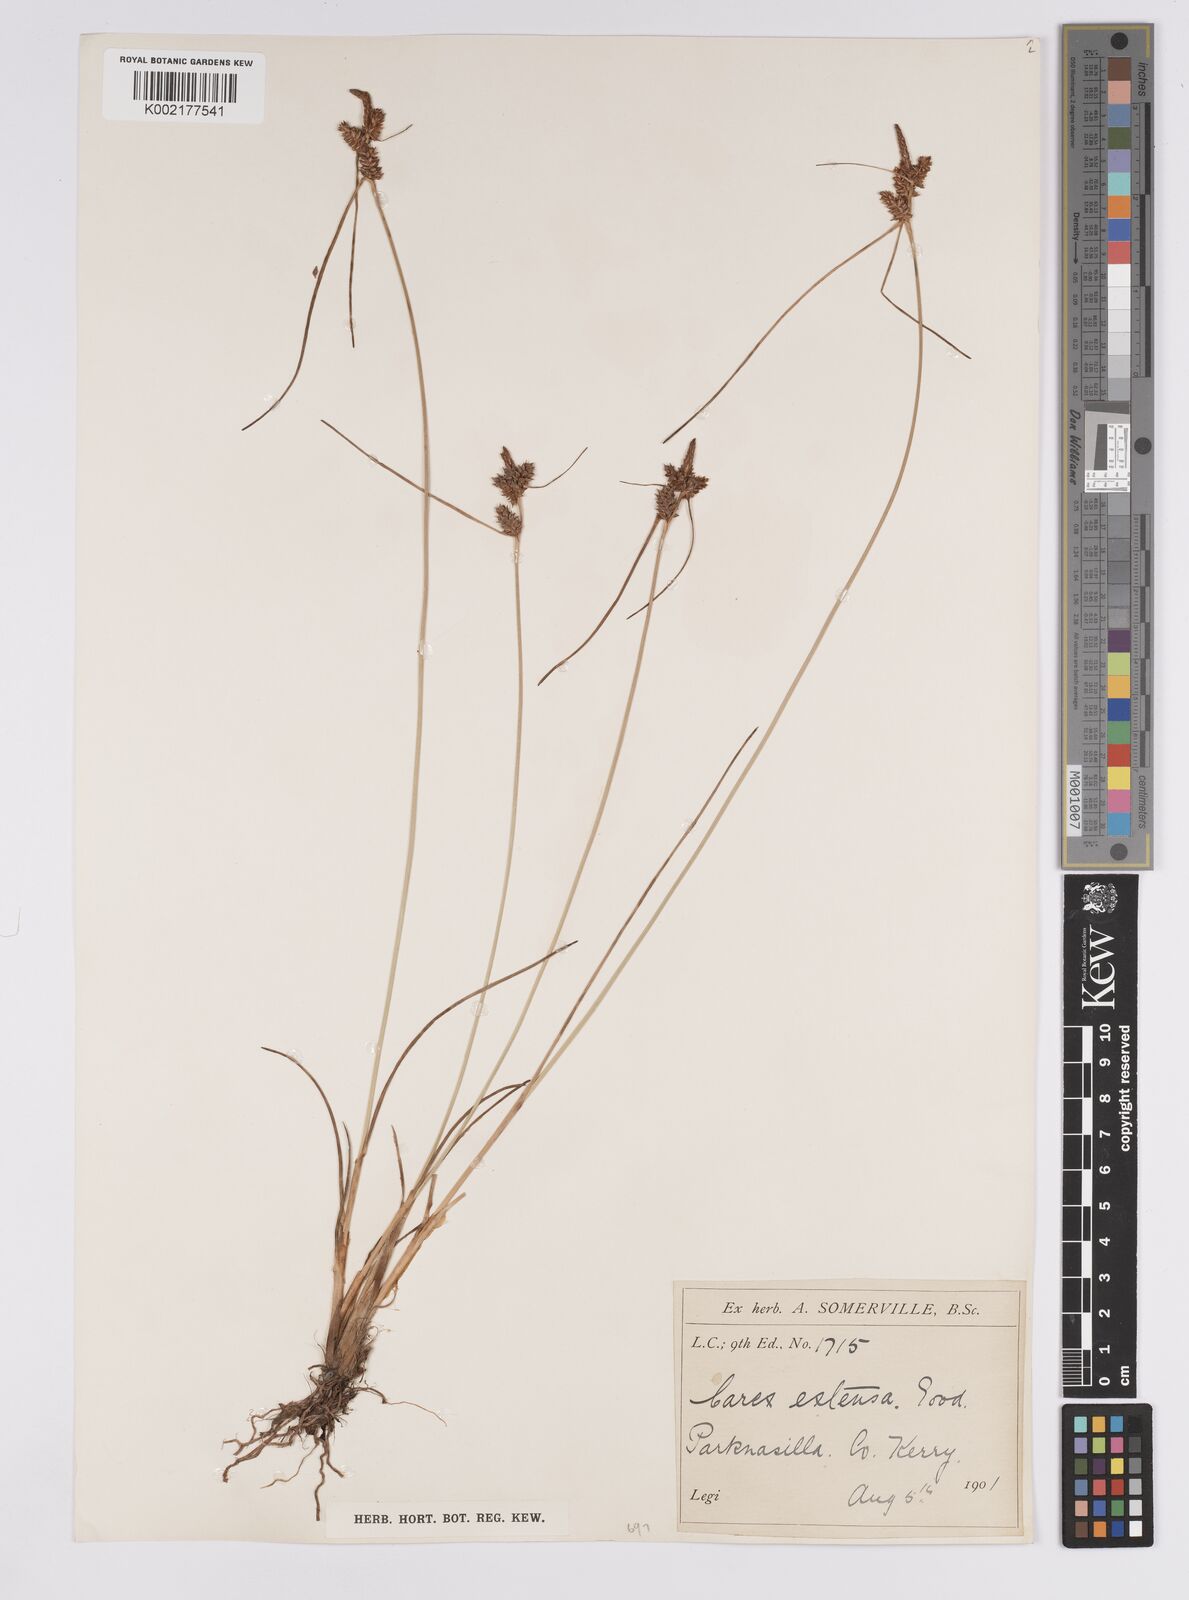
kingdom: Plantae
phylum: Tracheophyta
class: Liliopsida
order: Poales
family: Cyperaceae
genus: Carex
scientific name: Carex extensa
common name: Long-bracted sedge
